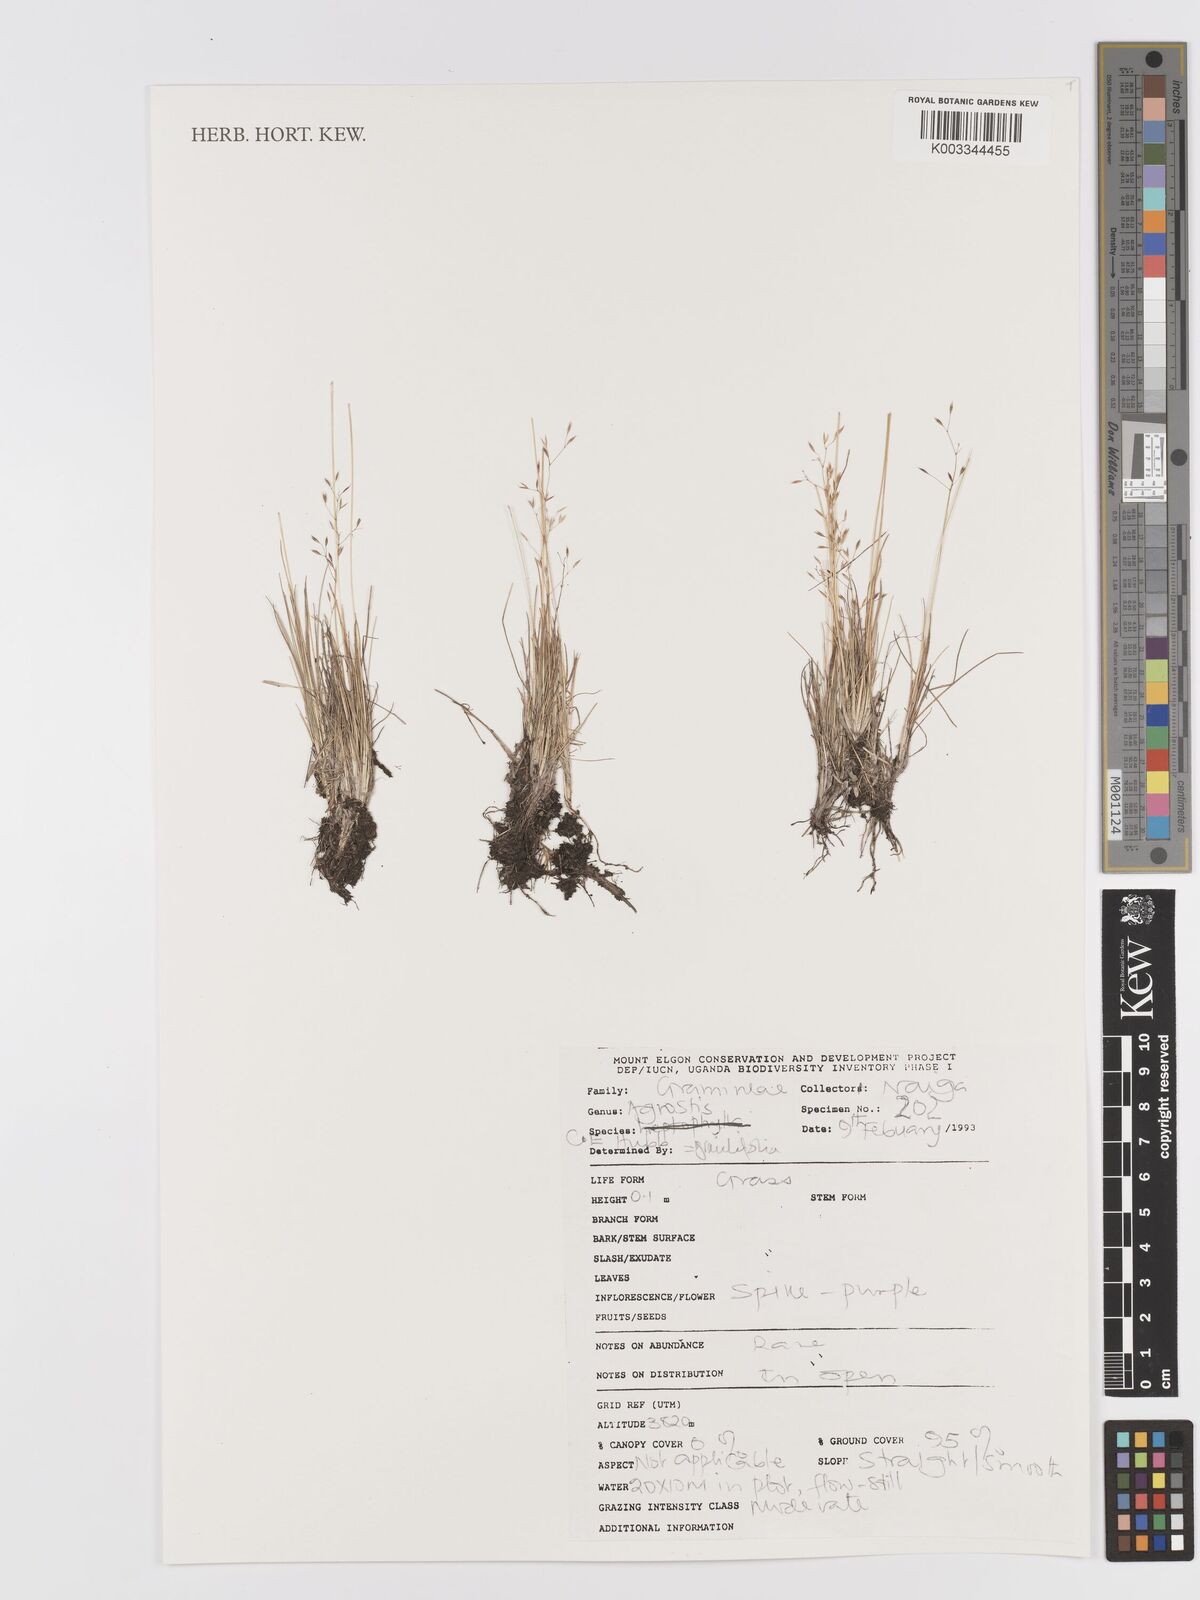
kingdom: Plantae
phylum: Tracheophyta
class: Liliopsida
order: Poales
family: Poaceae
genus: Agrostis
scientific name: Agrostis gracilifolia
